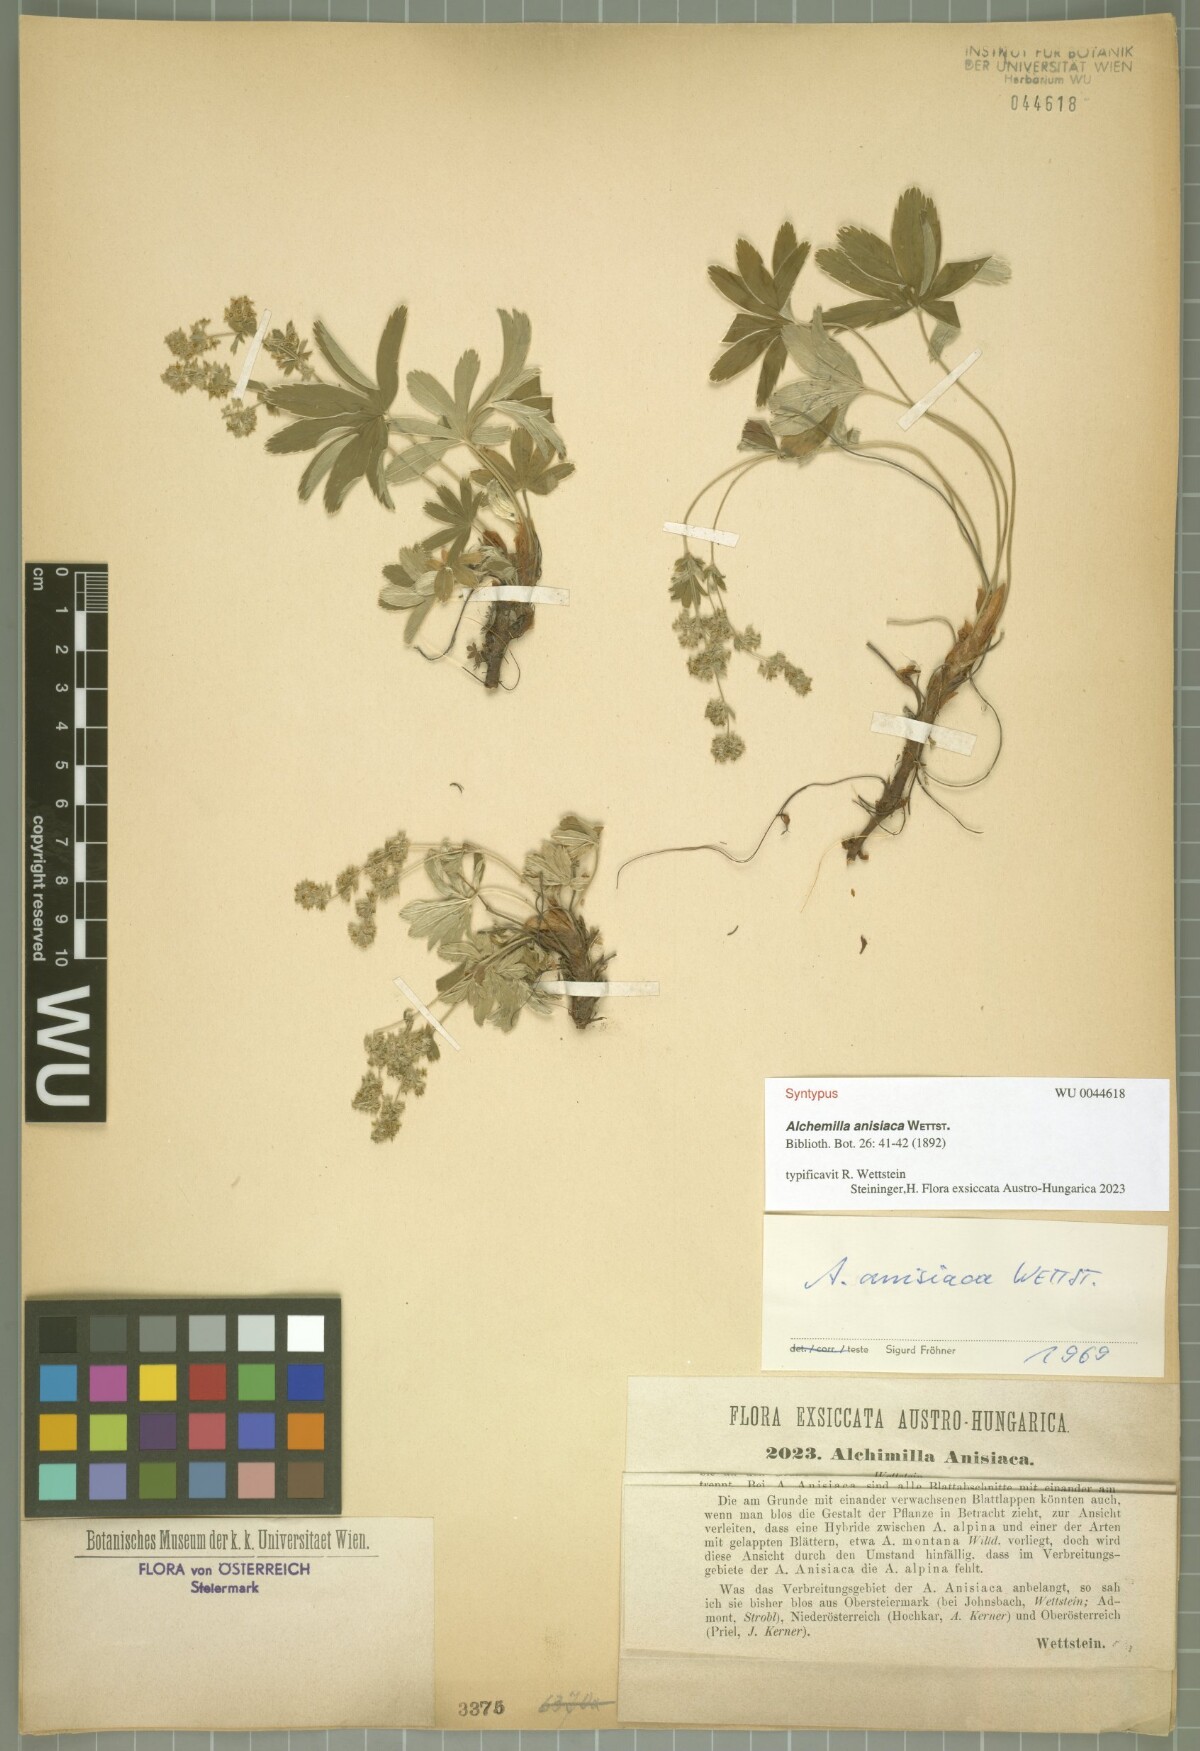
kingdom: Plantae
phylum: Tracheophyta
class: Magnoliopsida
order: Rosales
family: Rosaceae
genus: Alchemilla
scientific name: Alchemilla anisiaca
